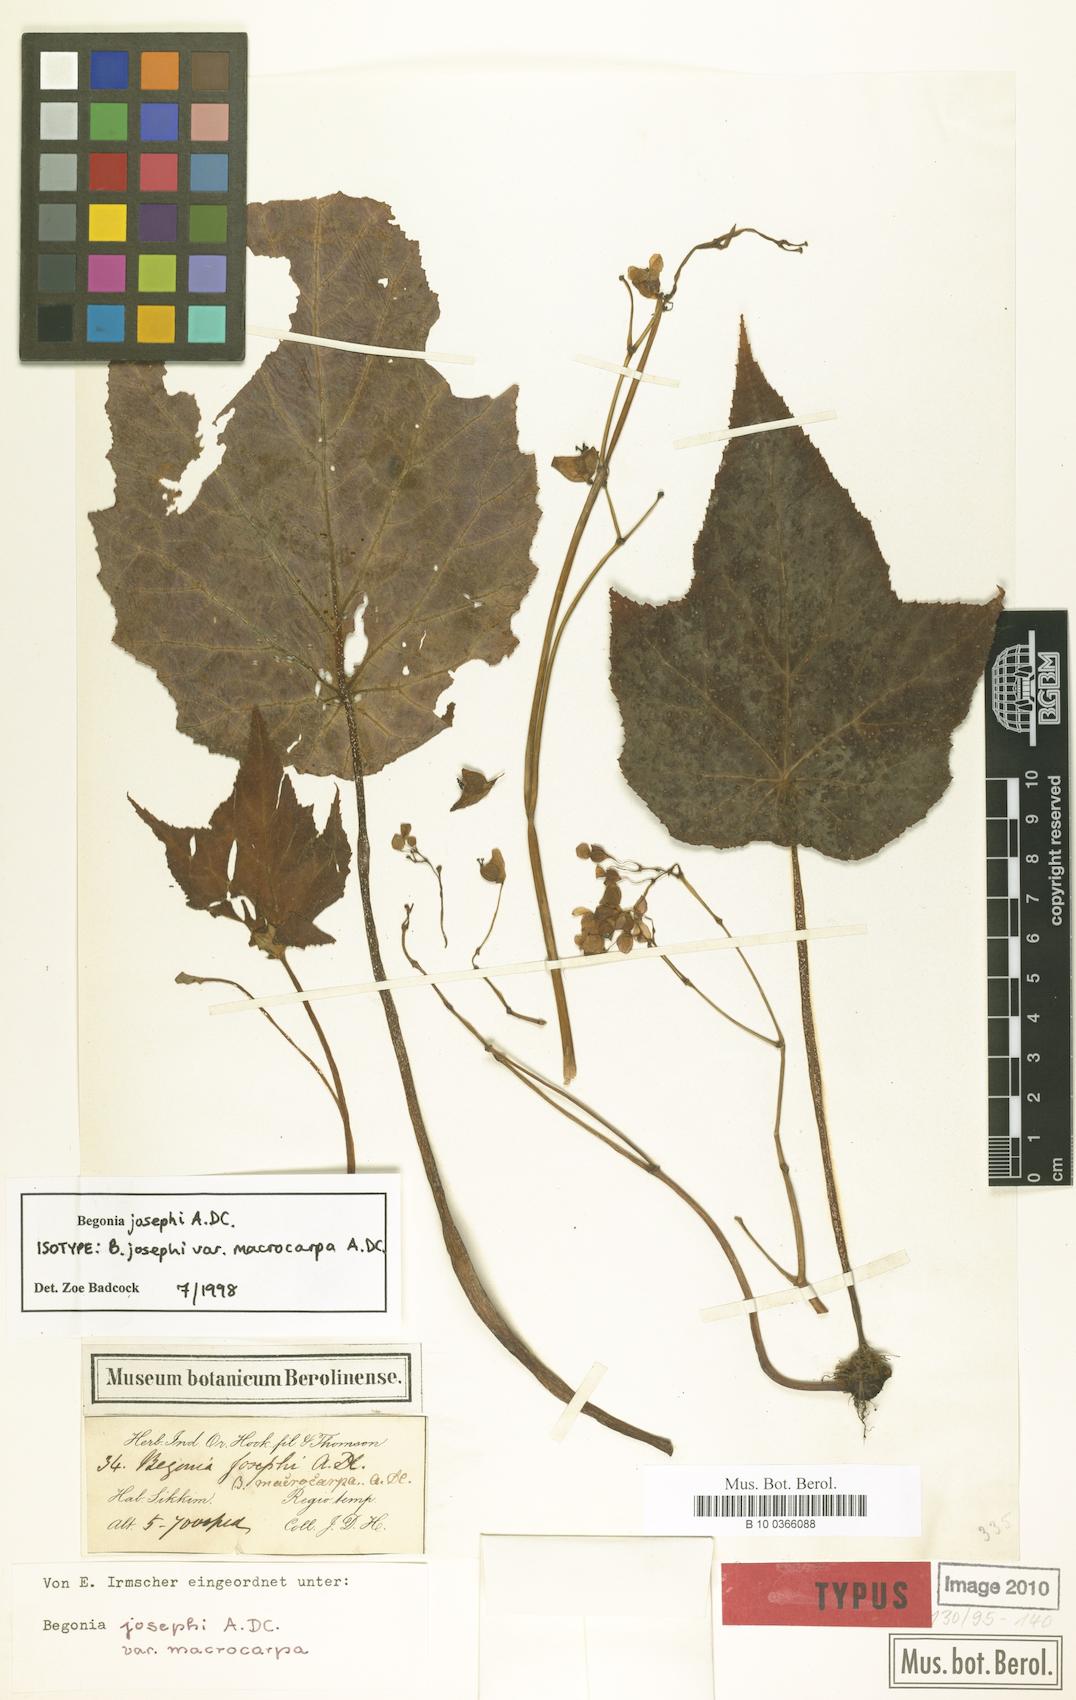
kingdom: Plantae
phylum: Tracheophyta
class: Magnoliopsida
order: Cucurbitales
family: Begoniaceae
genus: Begonia
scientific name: Begonia josephi
